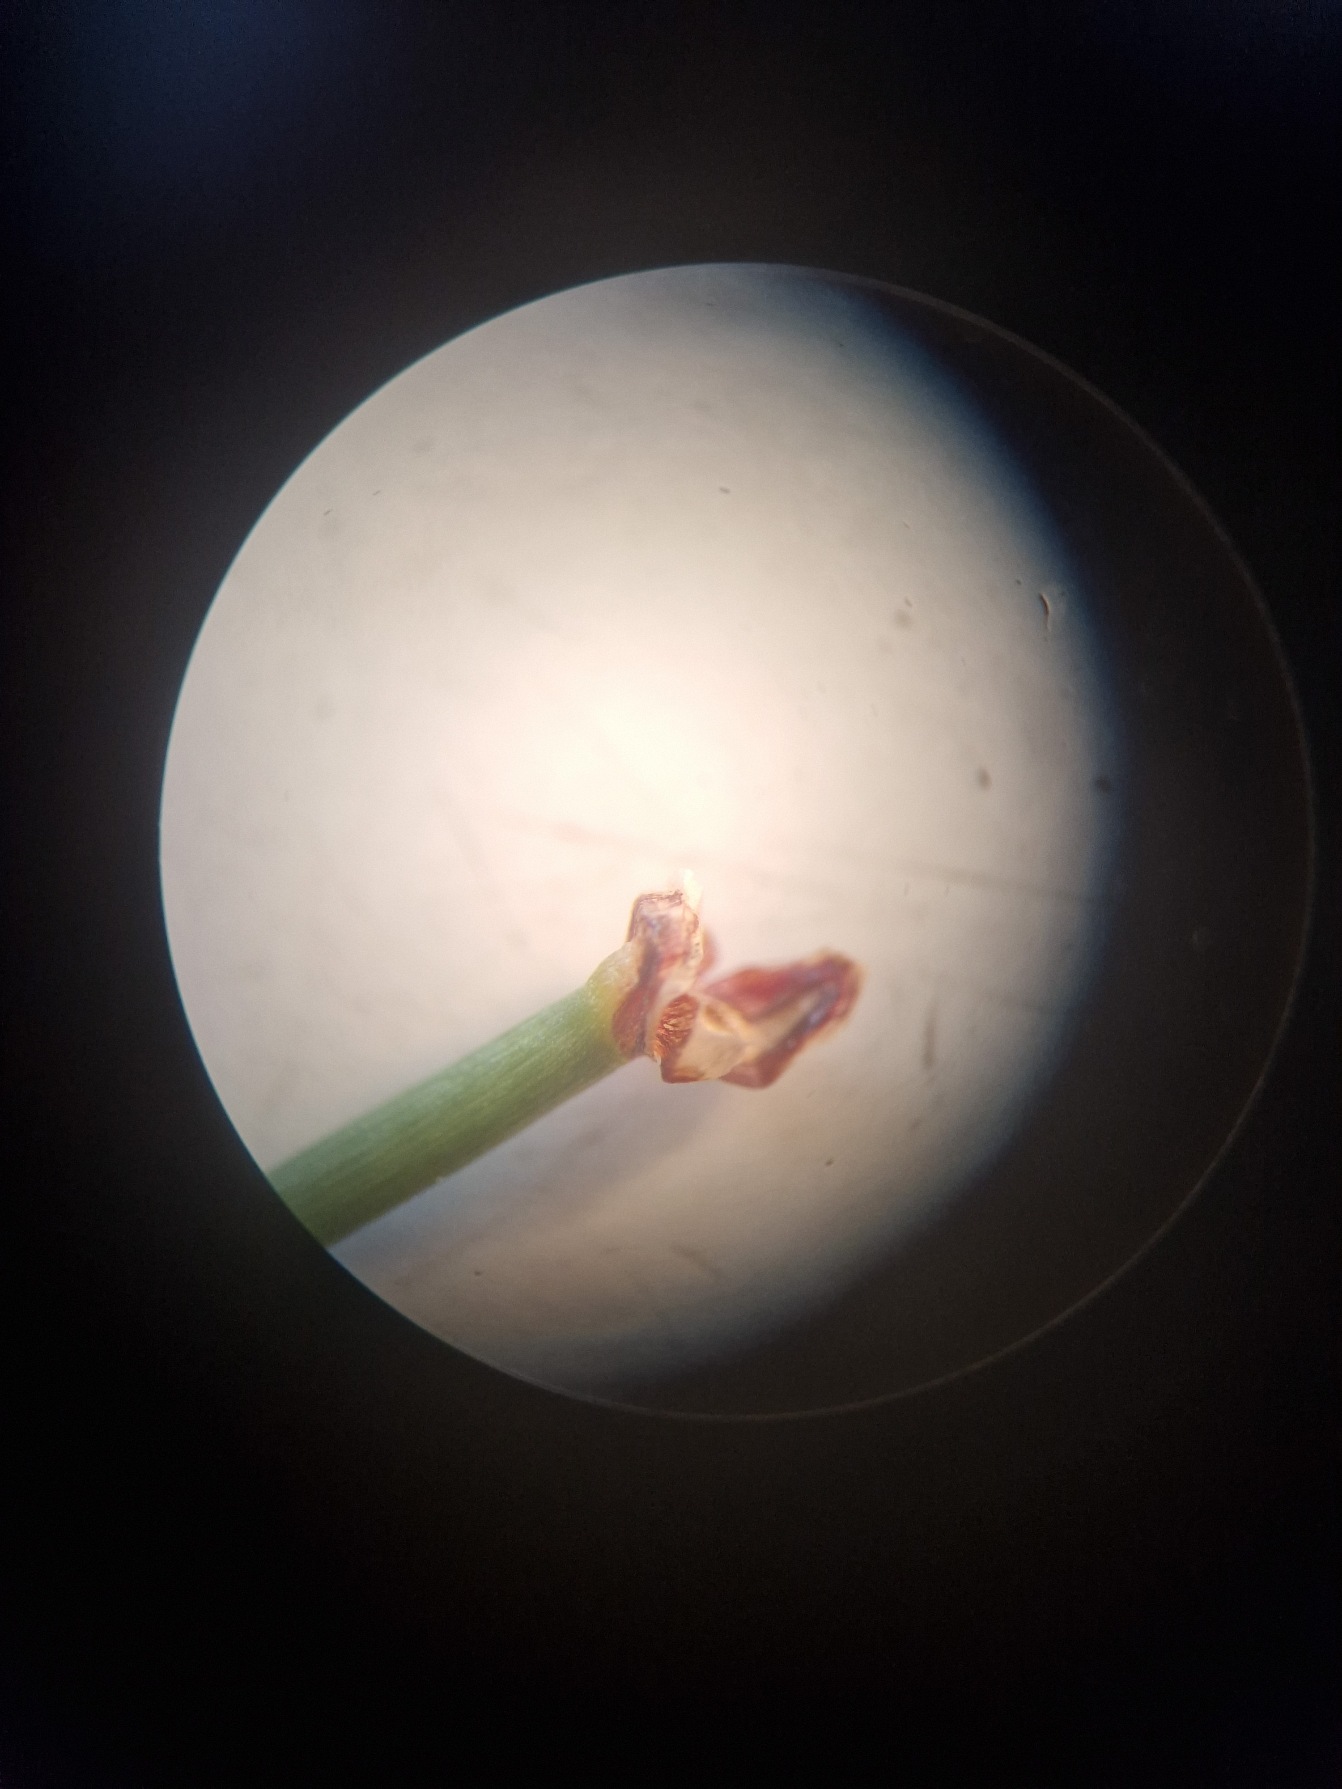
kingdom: Plantae
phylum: Tracheophyta
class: Liliopsida
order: Poales
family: Cyperaceae
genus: Eleocharis
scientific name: Eleocharis palustris
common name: Almindelig sumpstrå
